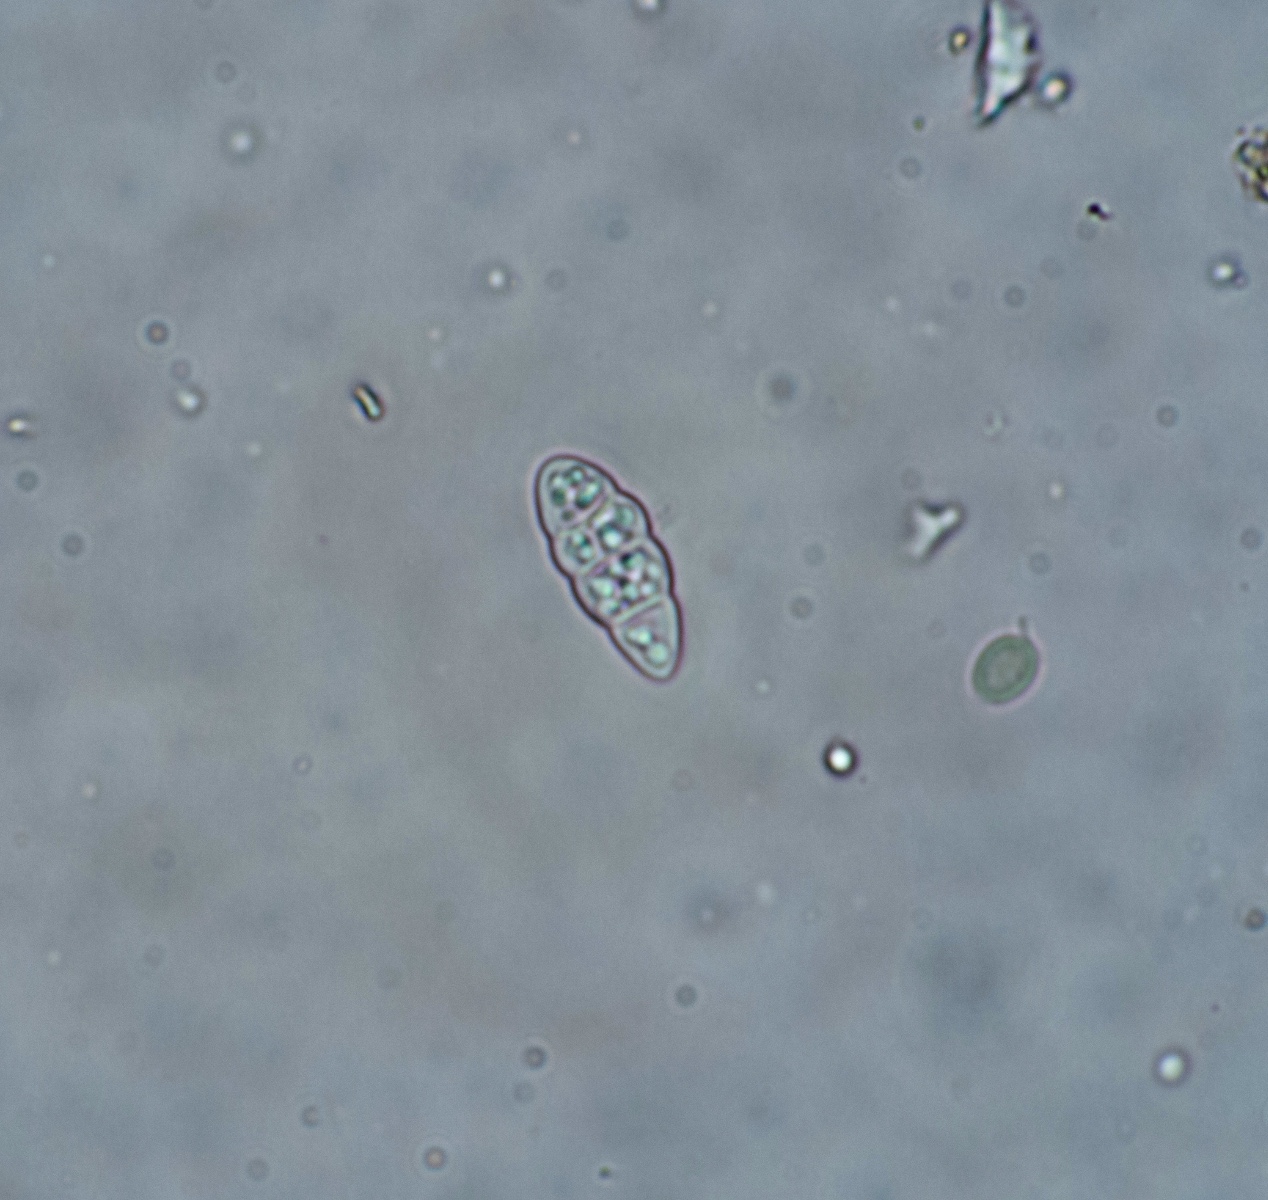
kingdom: Fungi
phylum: Ascomycota
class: Lecanoromycetes
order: Peltigerales
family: Collemataceae
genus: Enchylium
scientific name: Enchylium tenax
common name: tyk bævrelav
